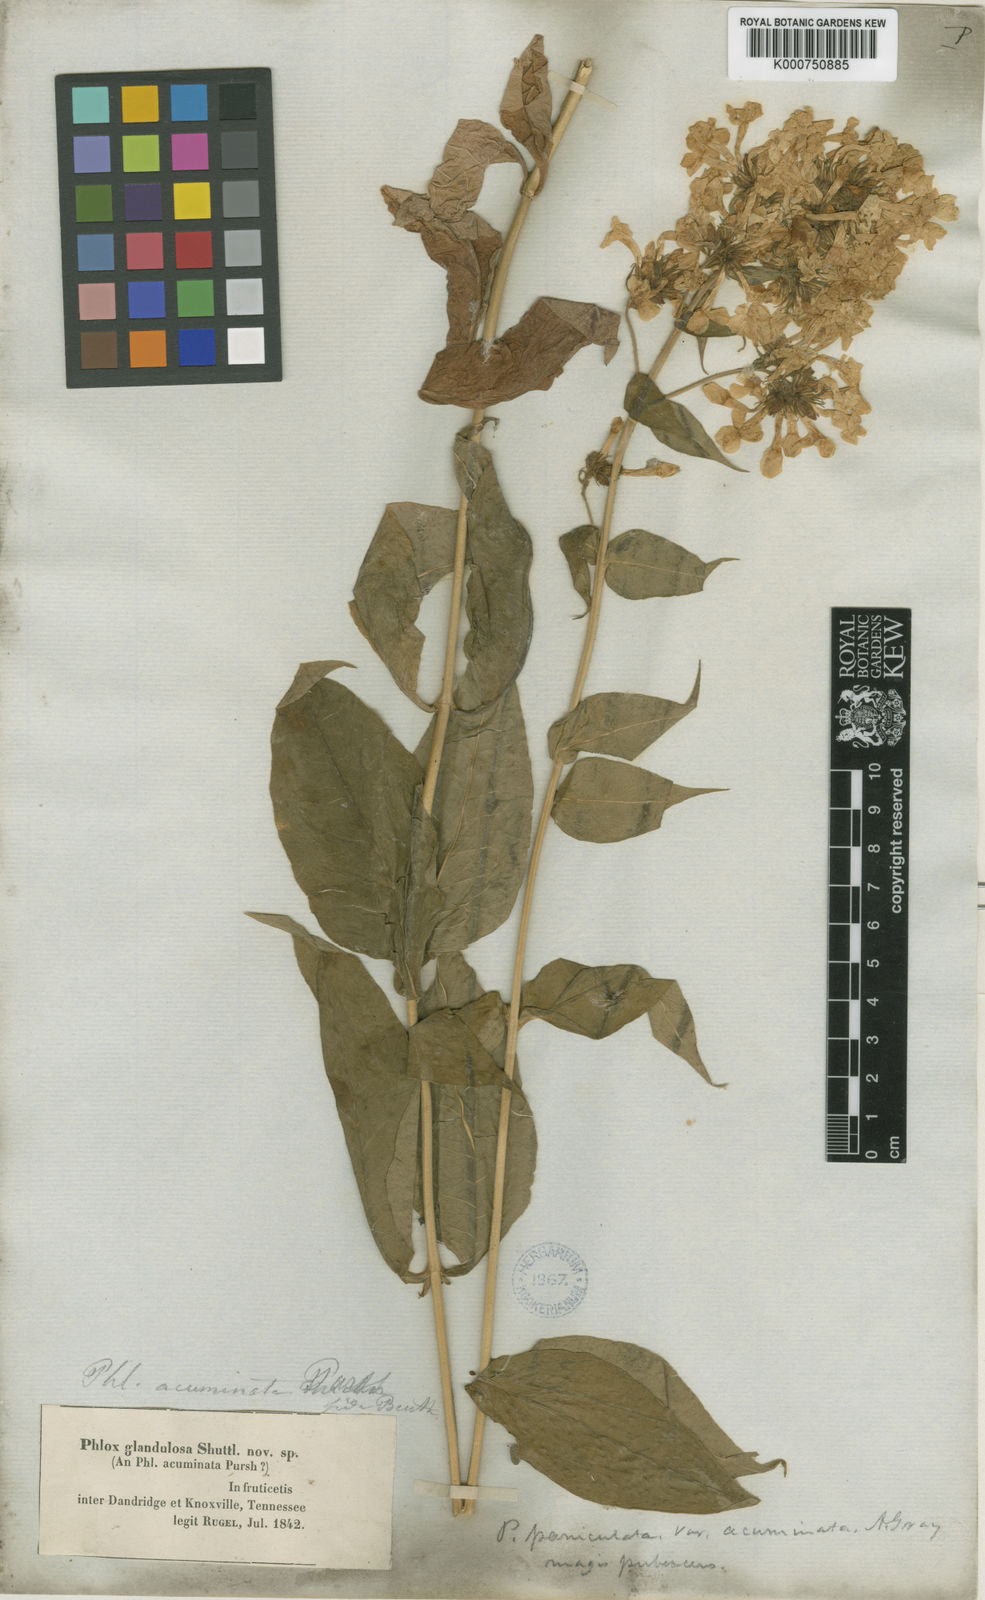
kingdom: Plantae
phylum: Tracheophyta
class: Magnoliopsida
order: Ericales
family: Polemoniaceae
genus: Phlox
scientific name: Phlox
